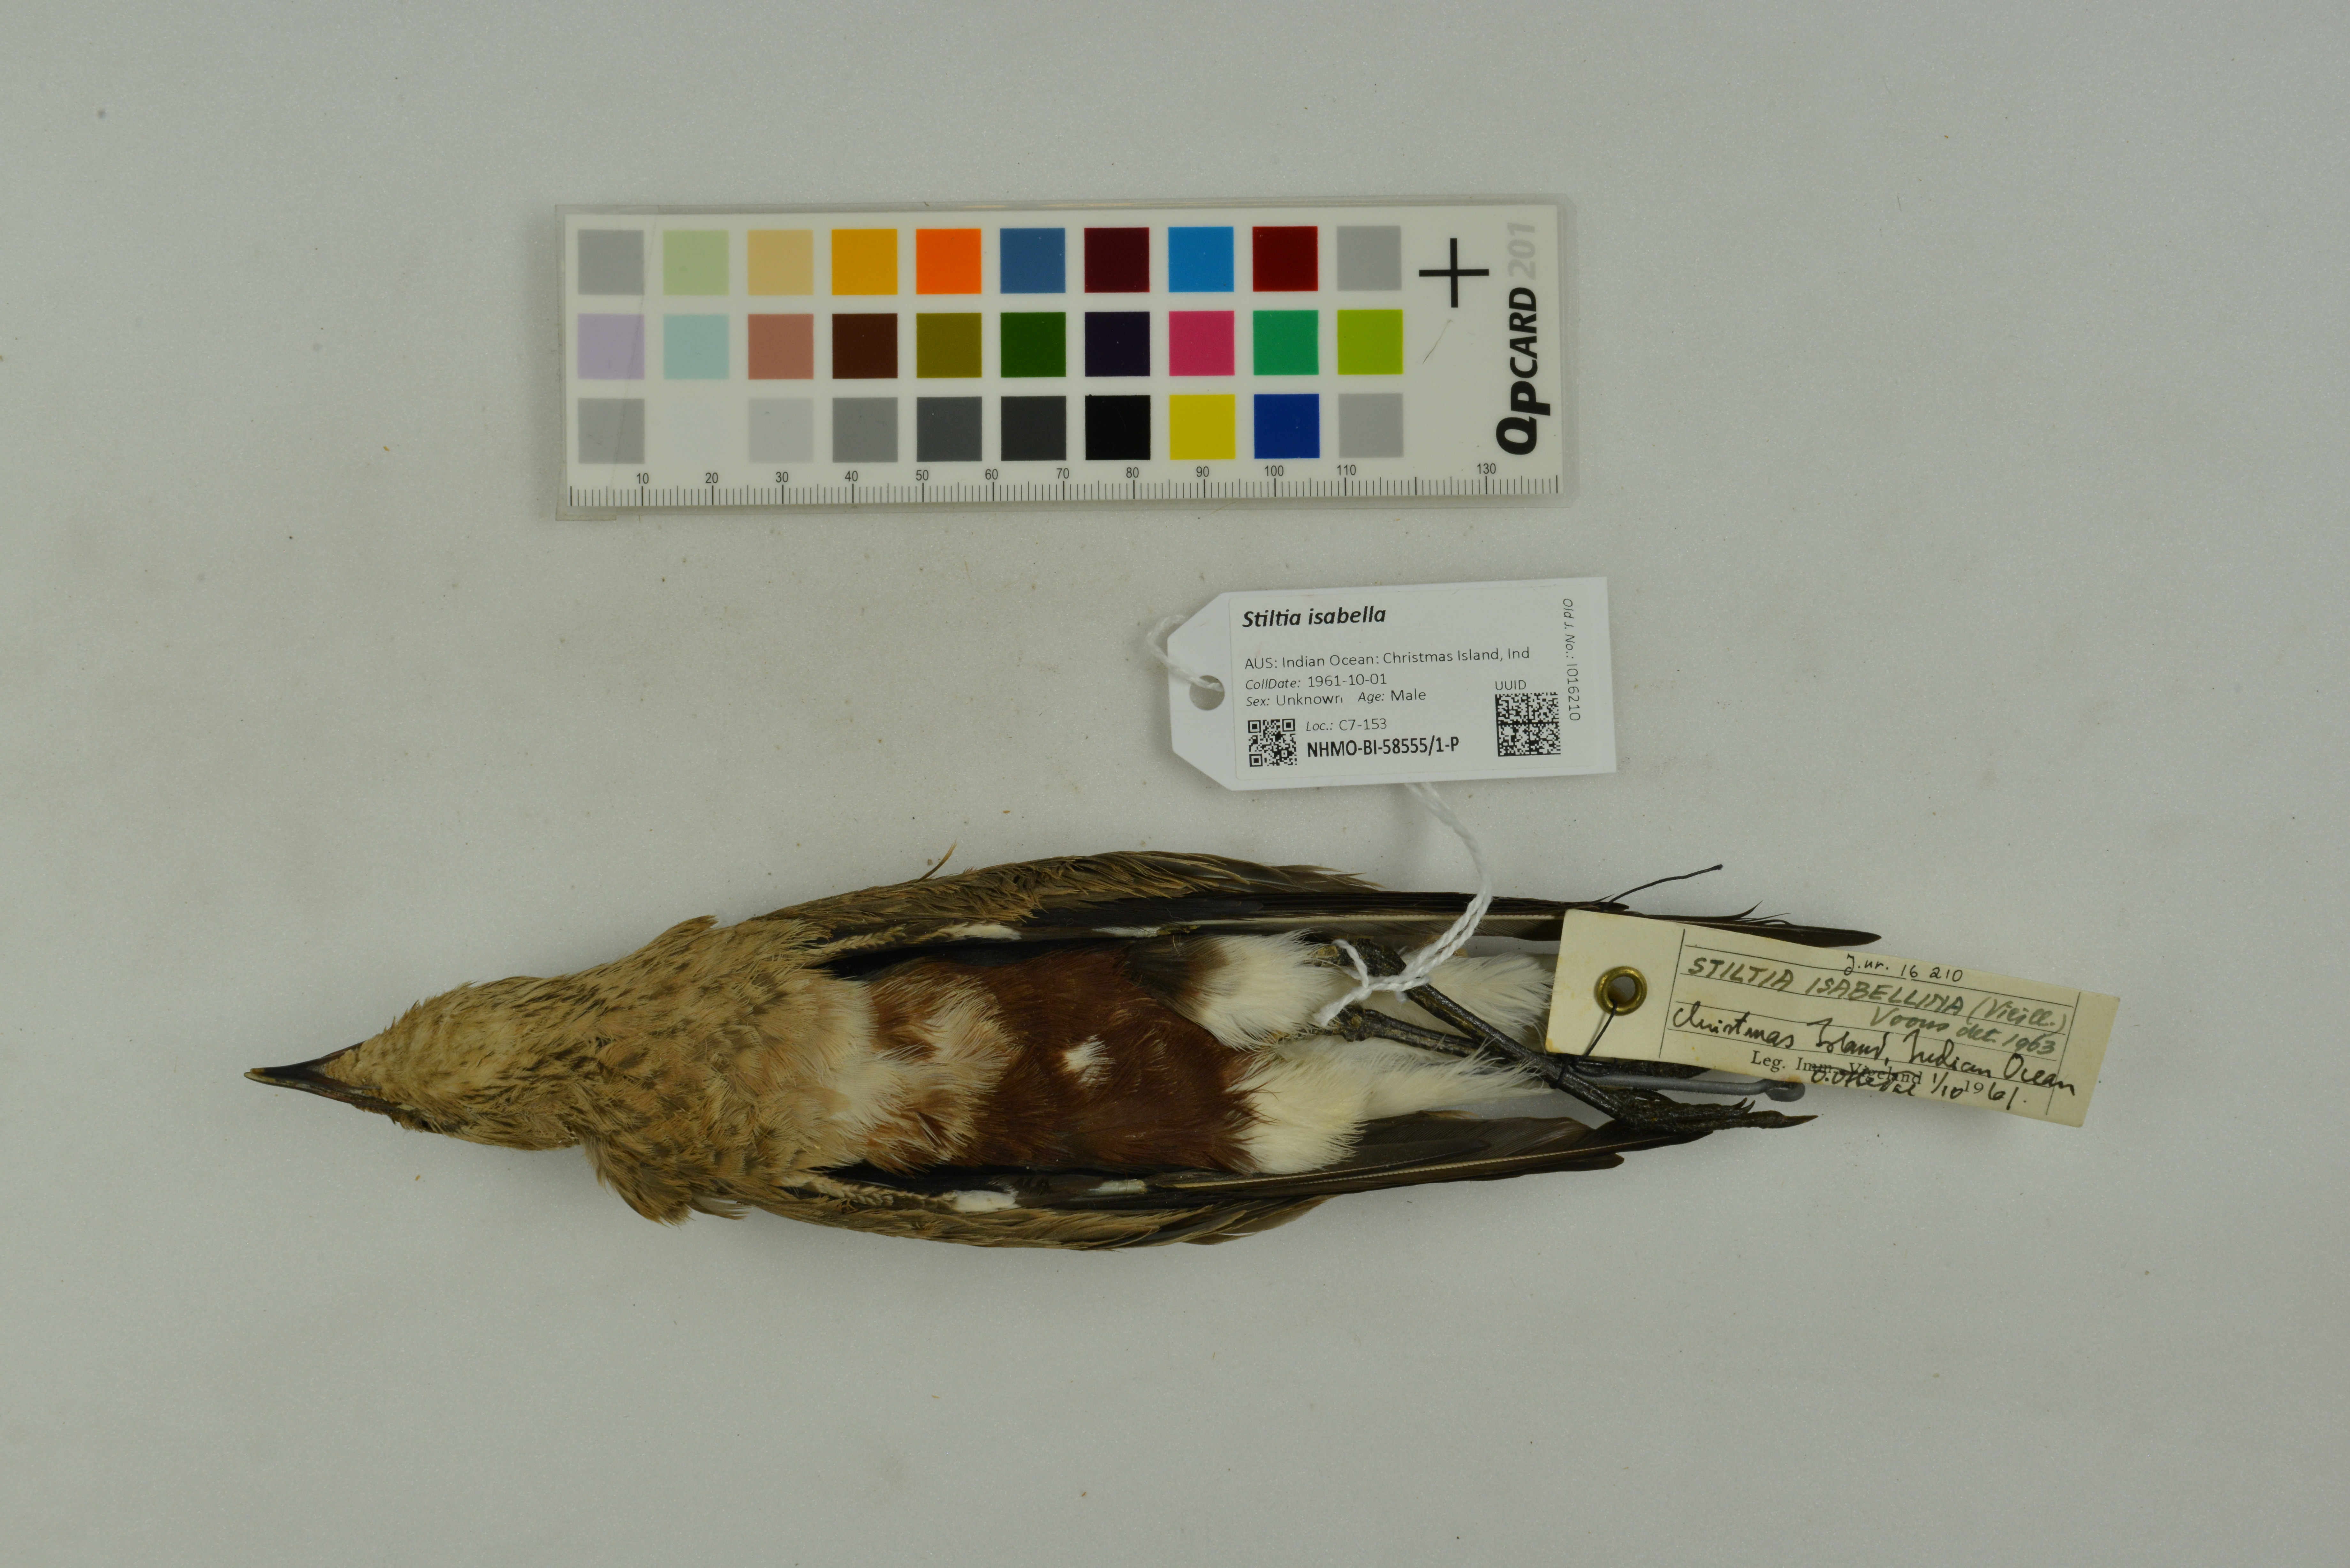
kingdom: Animalia
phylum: Chordata
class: Aves
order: Charadriiformes
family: Glareolidae
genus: Stiltia
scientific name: Stiltia isabella
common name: Australian pratincole
